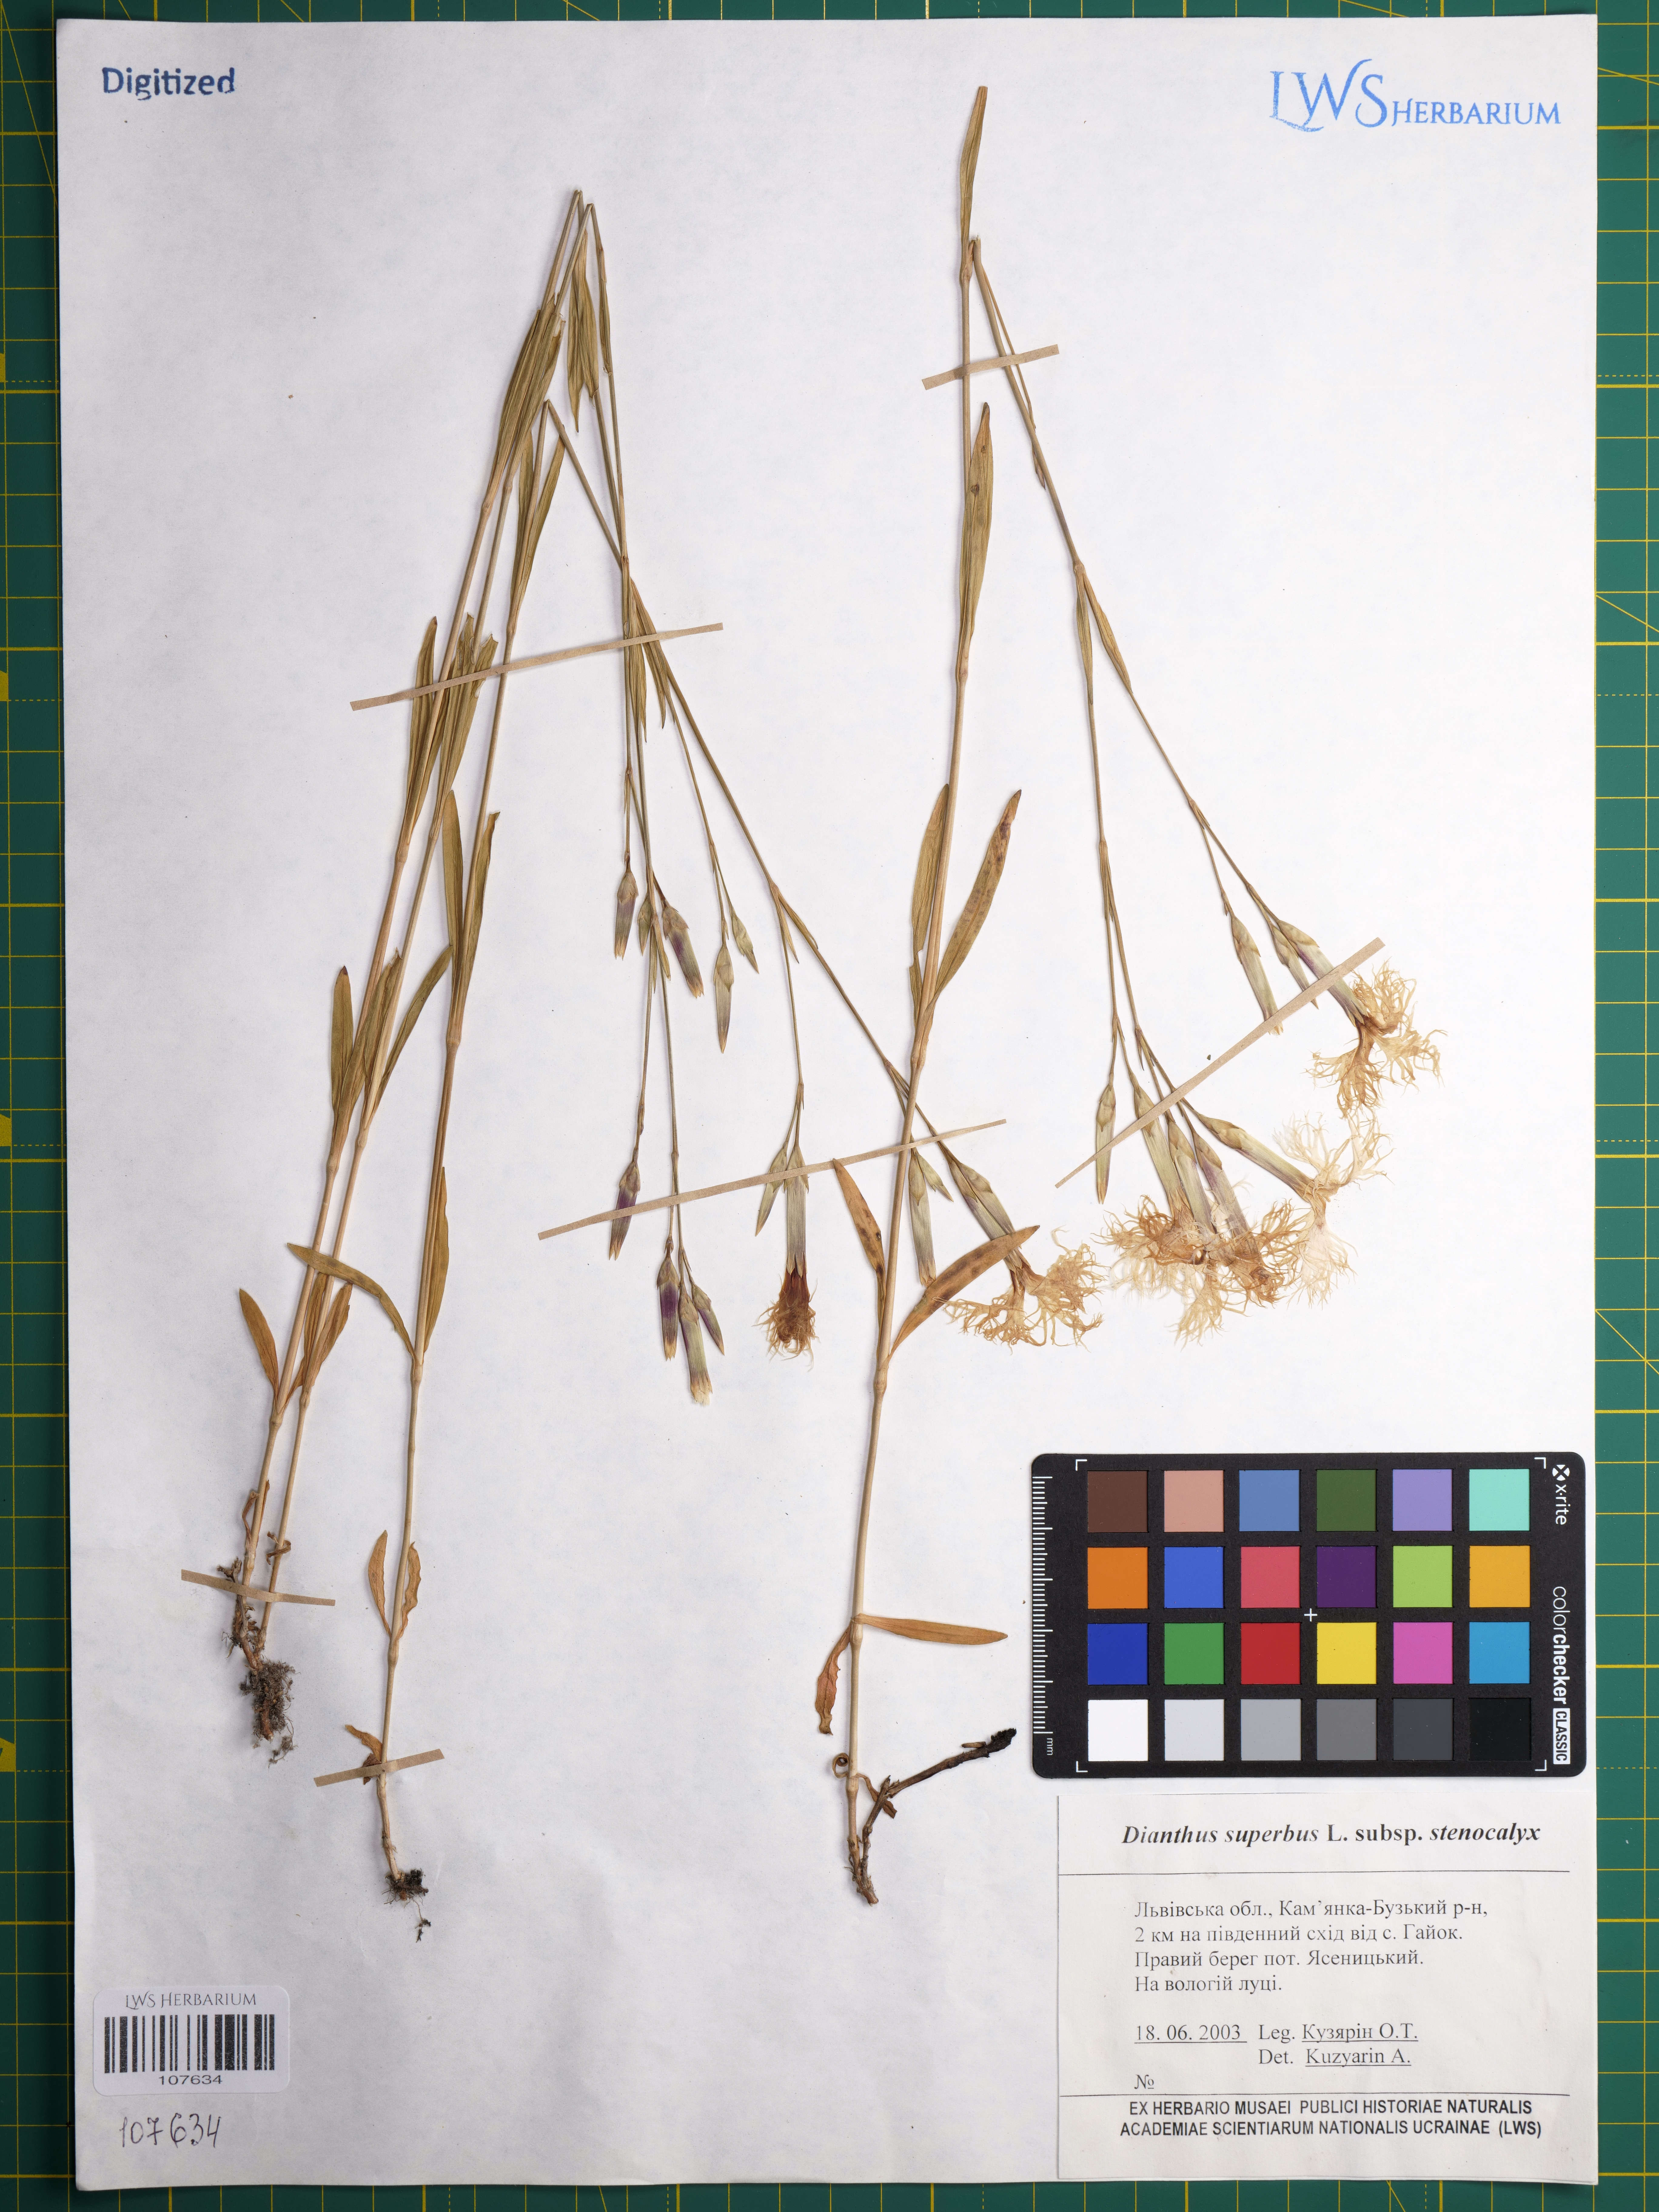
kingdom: Plantae
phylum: Tracheophyta
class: Magnoliopsida
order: Caryophyllales
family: Caryophyllaceae
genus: Dianthus
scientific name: Dianthus superbus
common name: Fringed pink
